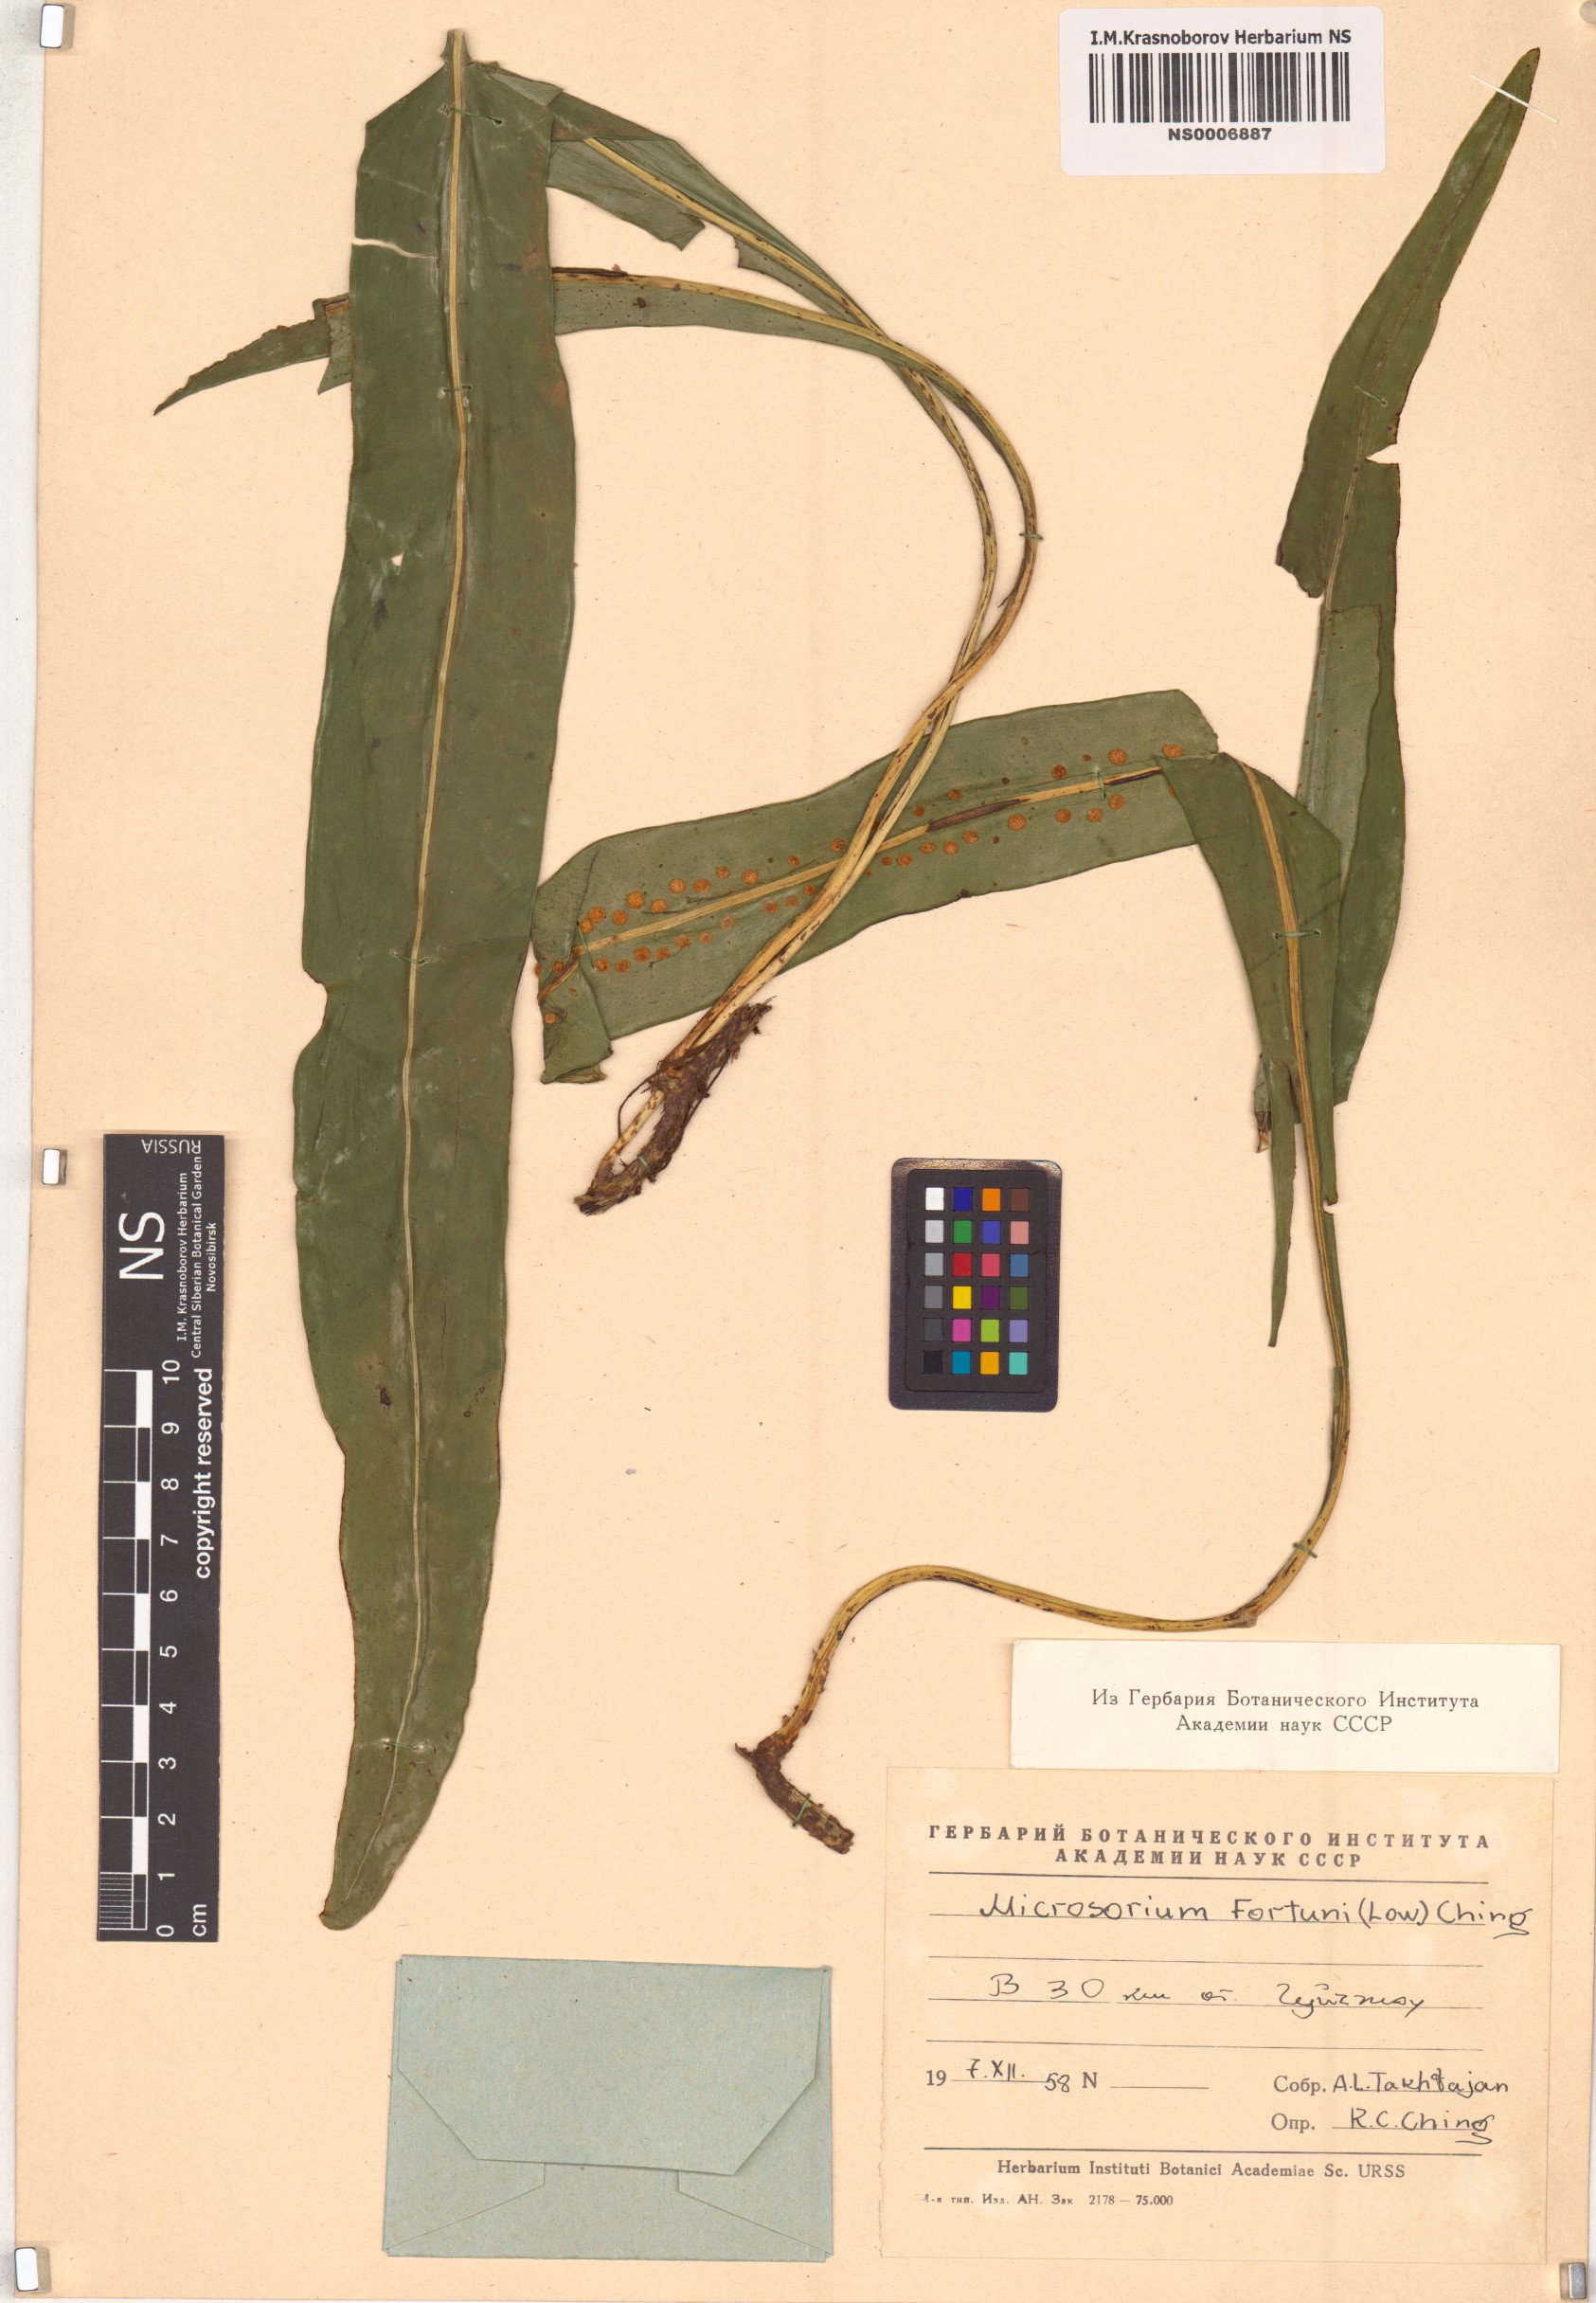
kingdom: Plantae
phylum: Tracheophyta
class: Polypodiopsida
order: Polypodiales
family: Polypodiaceae
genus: Lepisorus
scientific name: Lepisorus fortuni
